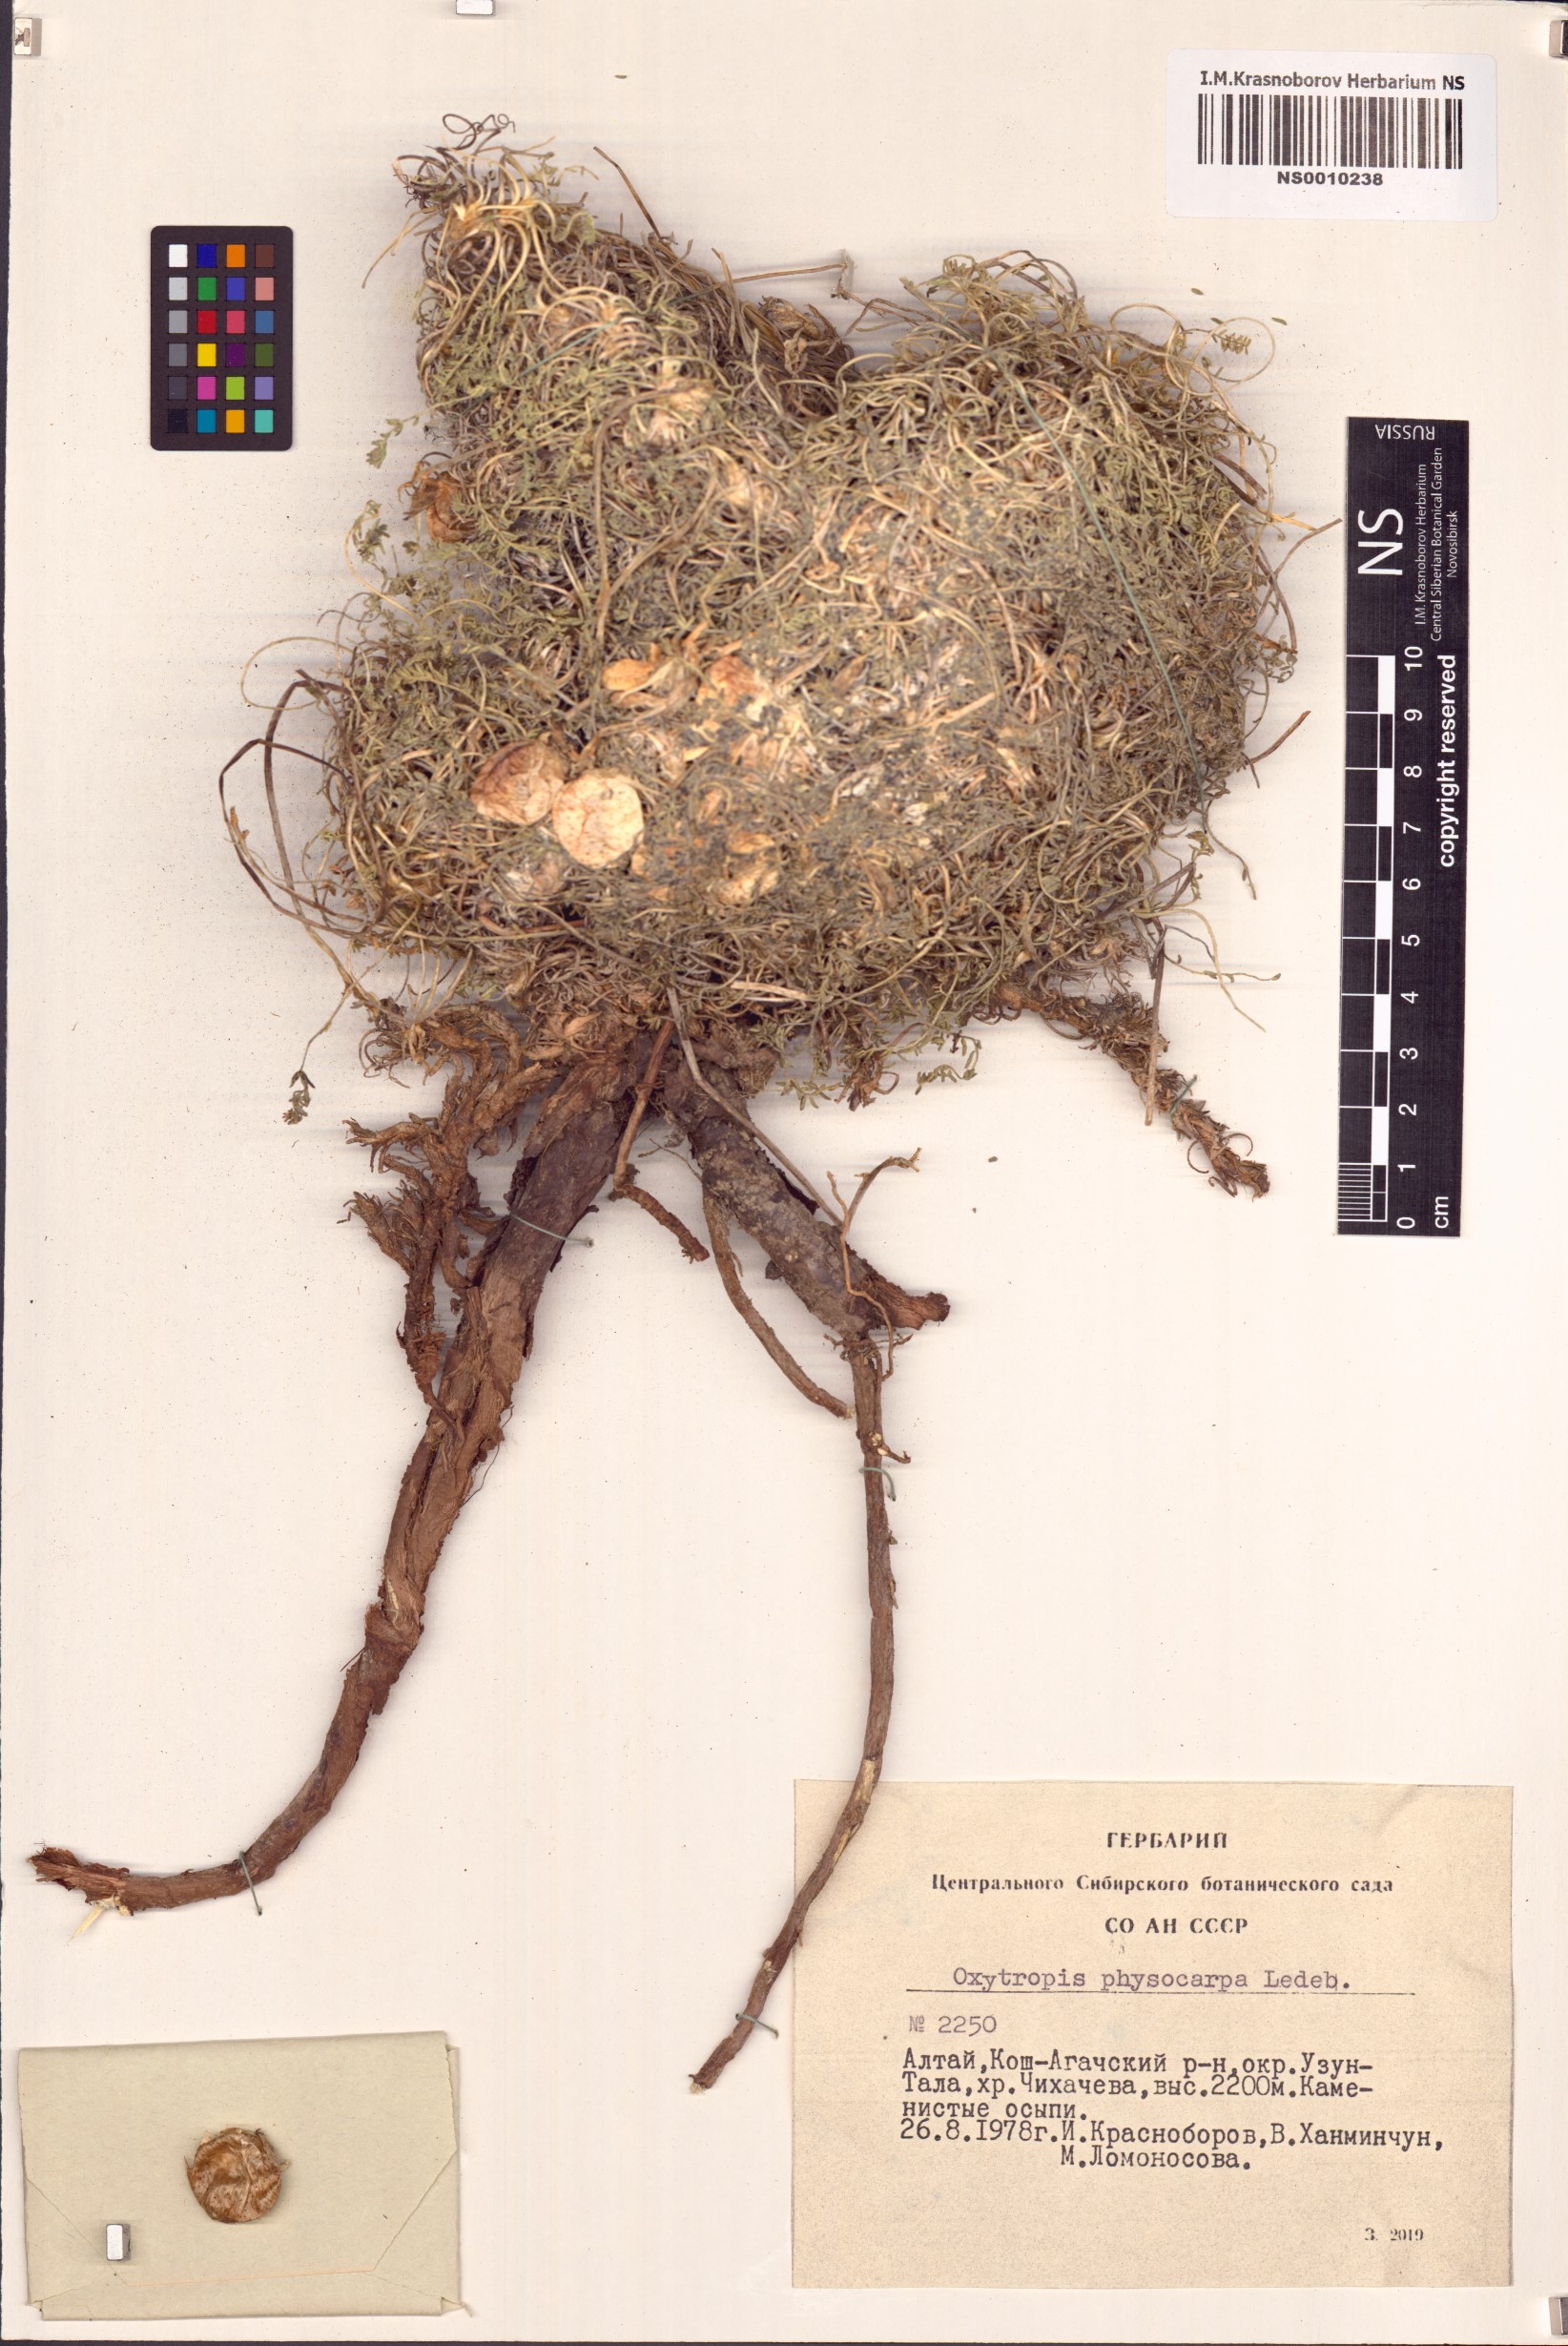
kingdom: Plantae
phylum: Tracheophyta
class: Magnoliopsida
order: Fabales
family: Fabaceae
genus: Oxytropis
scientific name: Oxytropis physocarpa
